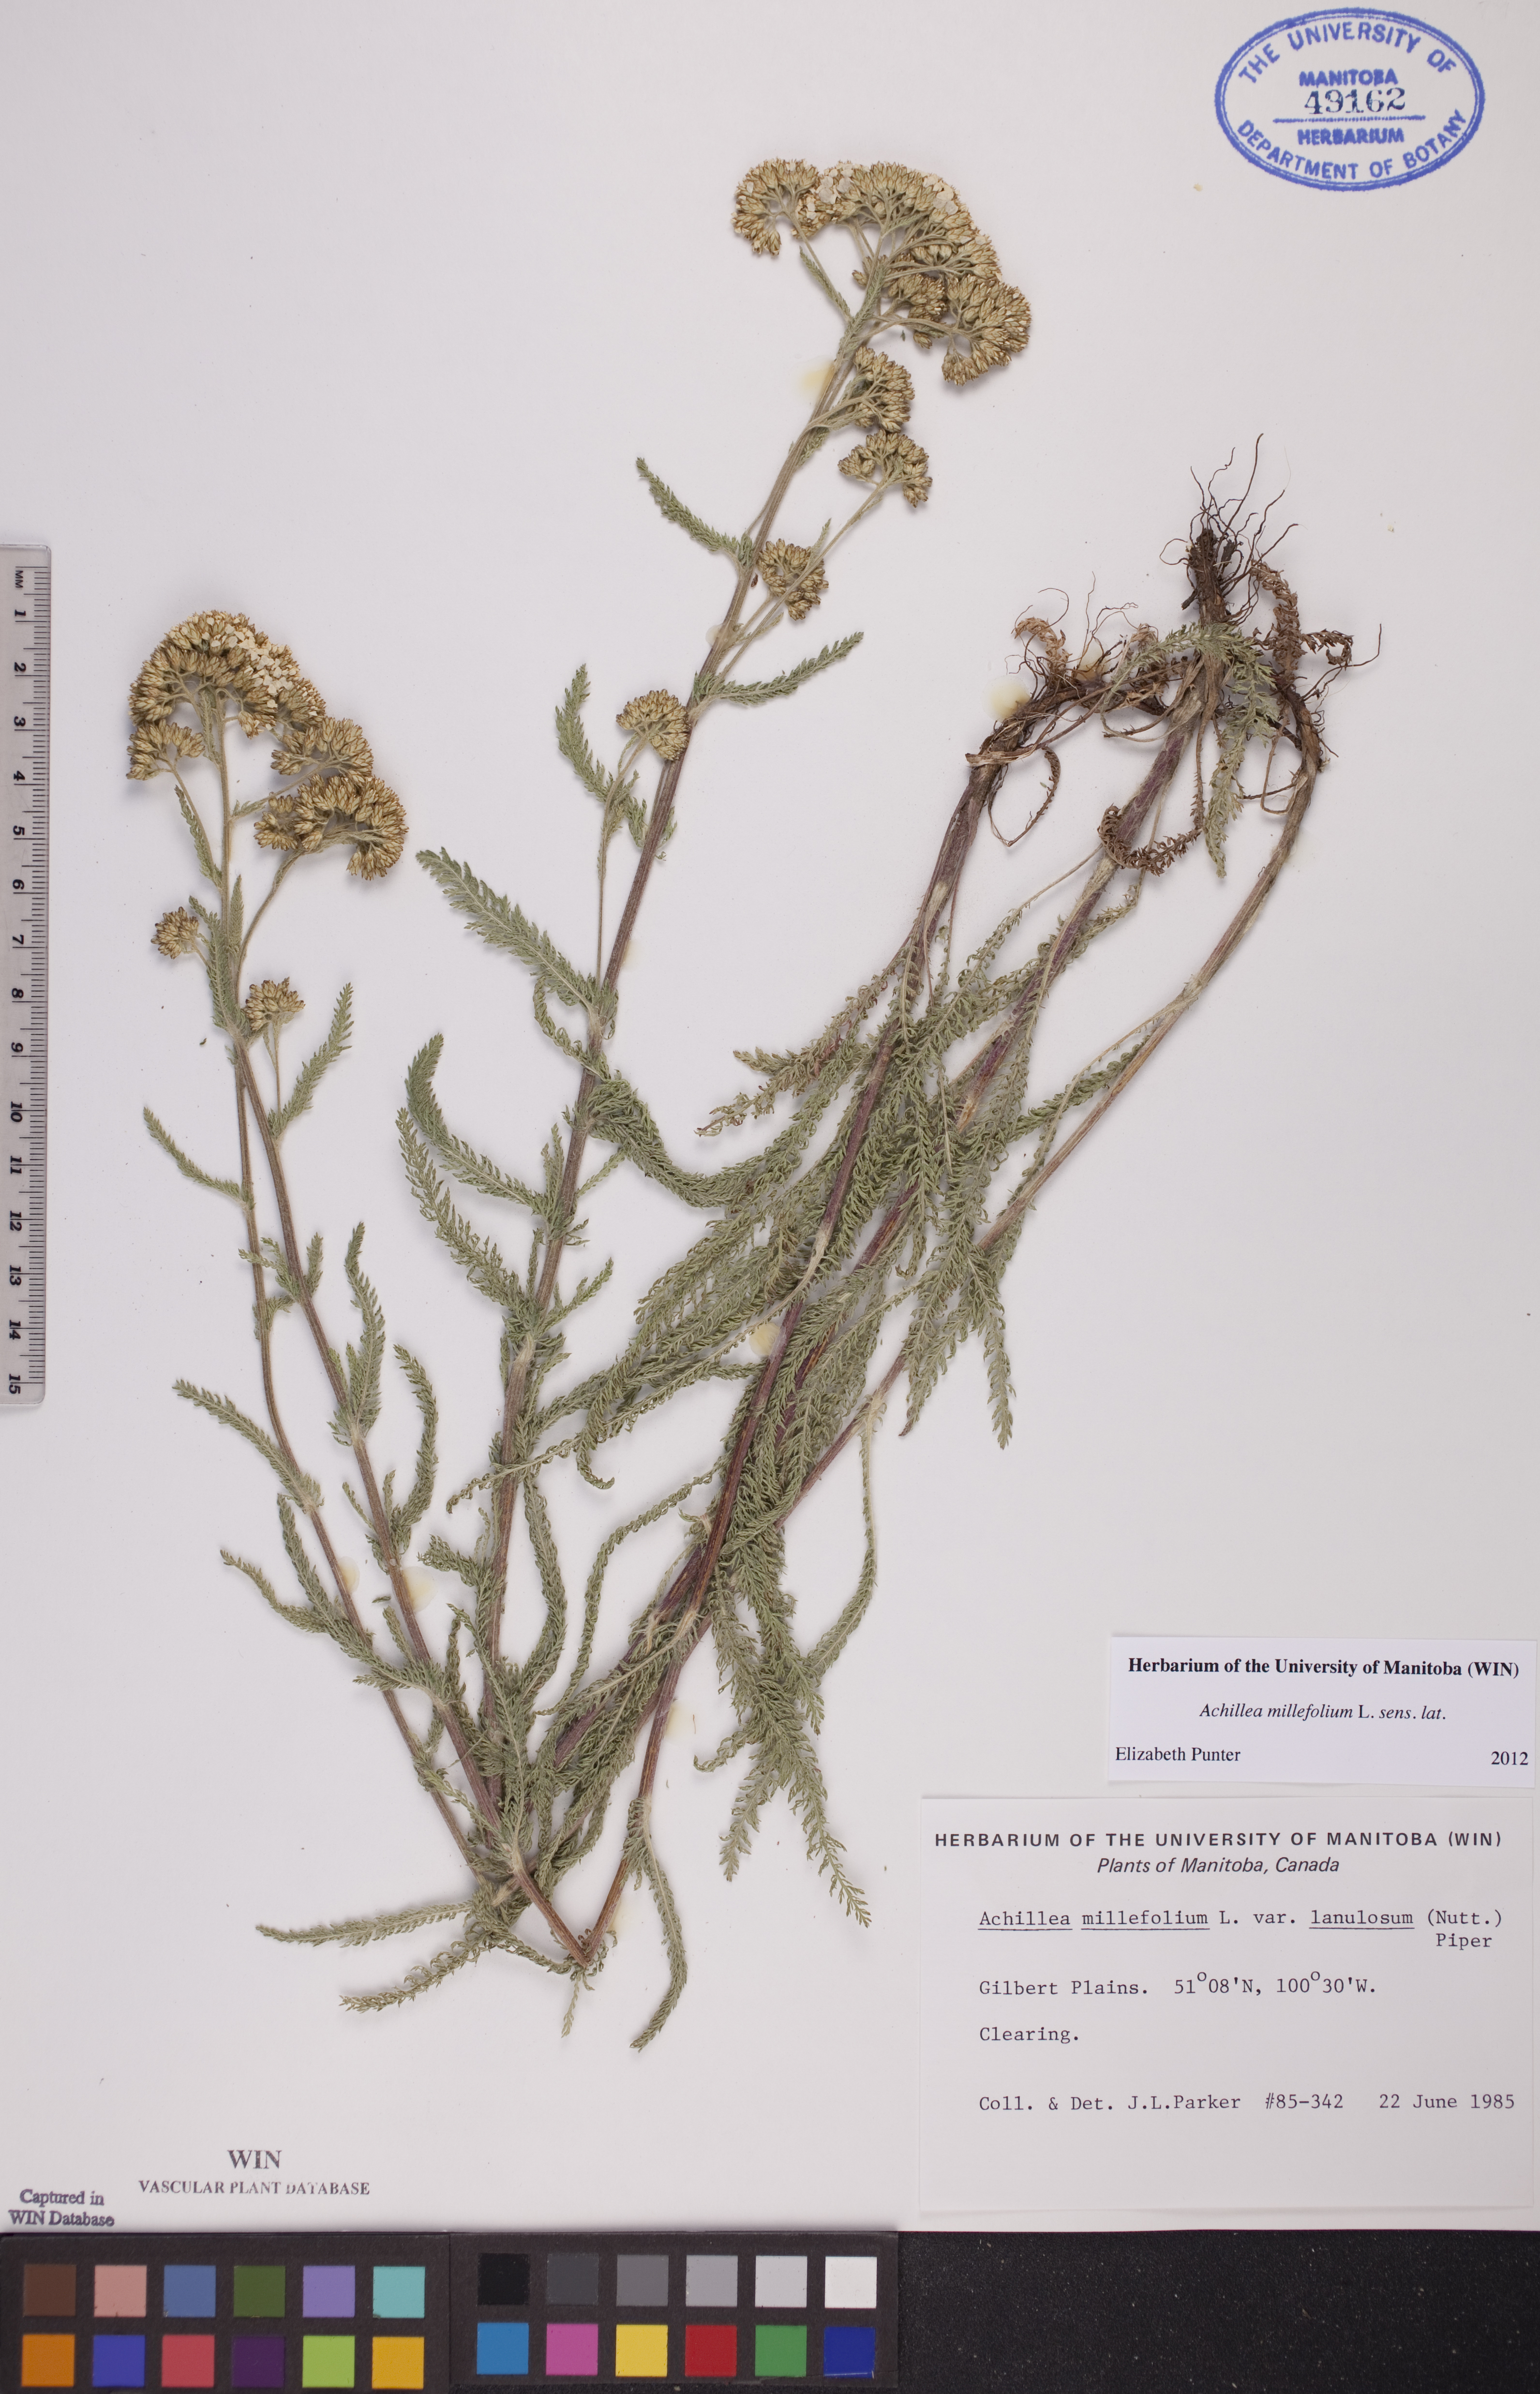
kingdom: Plantae
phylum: Tracheophyta
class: Magnoliopsida
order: Asterales
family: Asteraceae
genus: Achillea
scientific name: Achillea millefolium
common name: Yarrow
